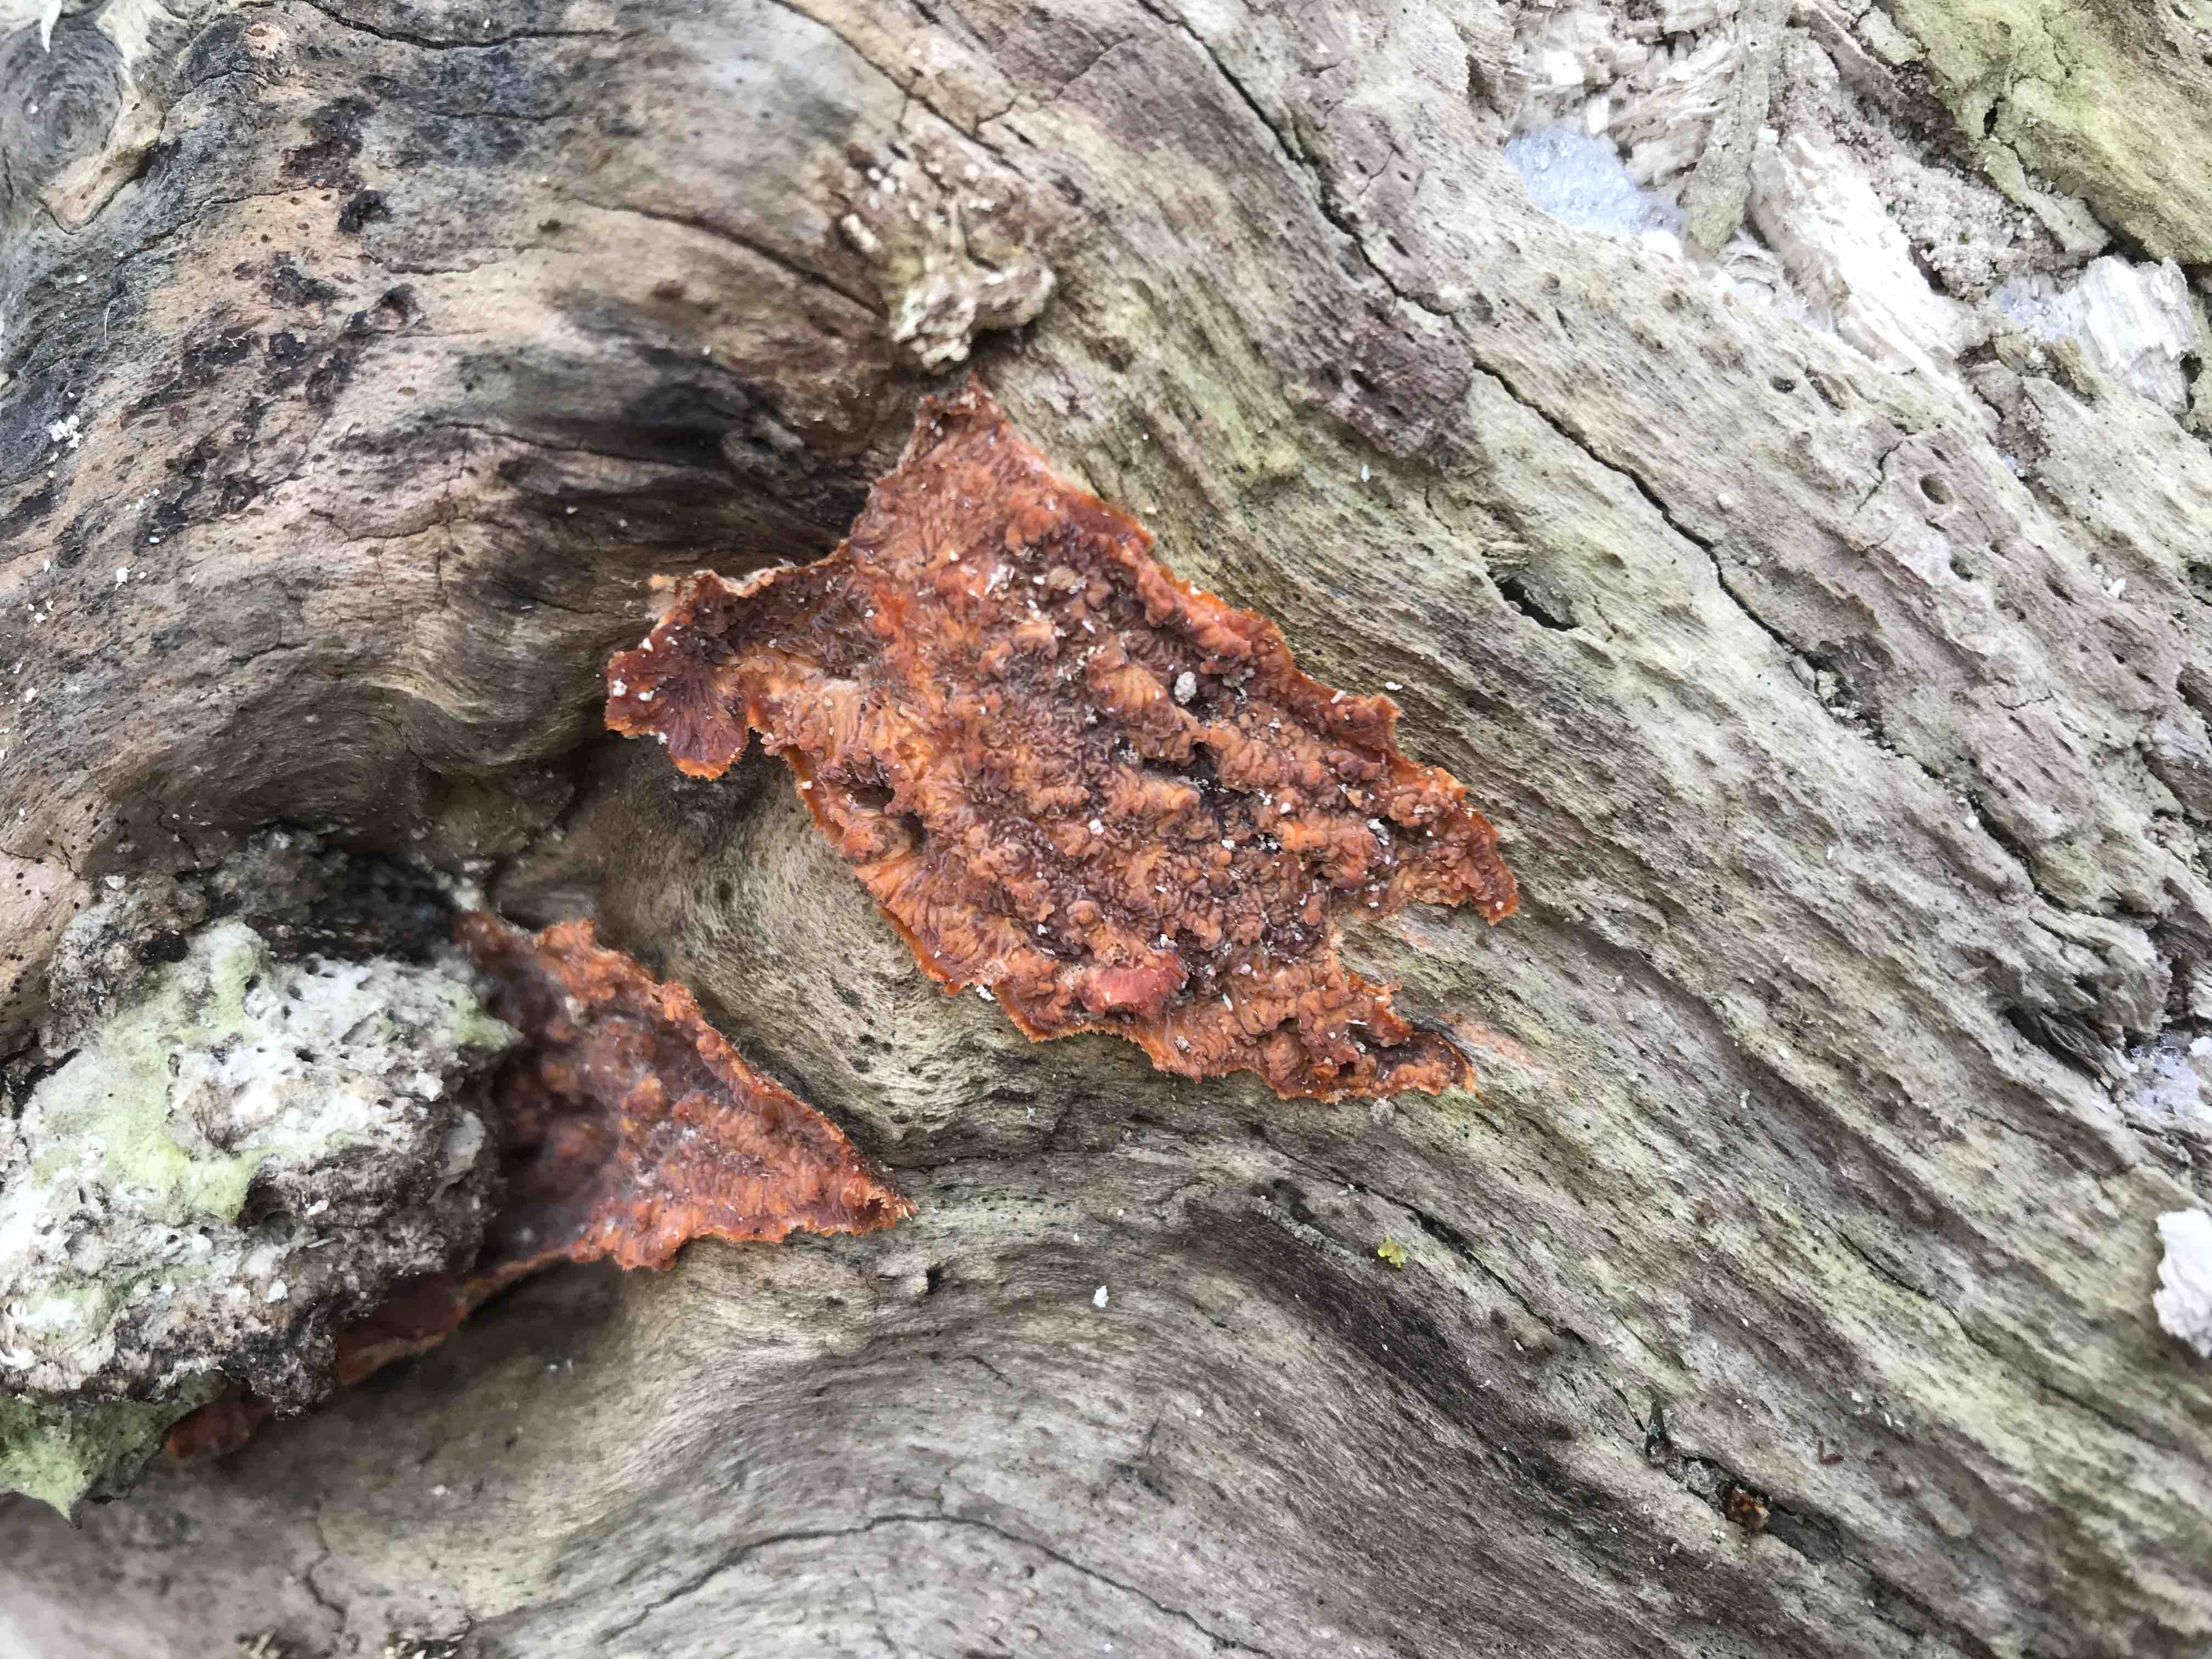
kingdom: Fungi
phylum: Basidiomycota
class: Agaricomycetes
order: Polyporales
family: Meruliaceae
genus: Phlebia
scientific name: Phlebia radiata
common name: stråle-åresvamp
